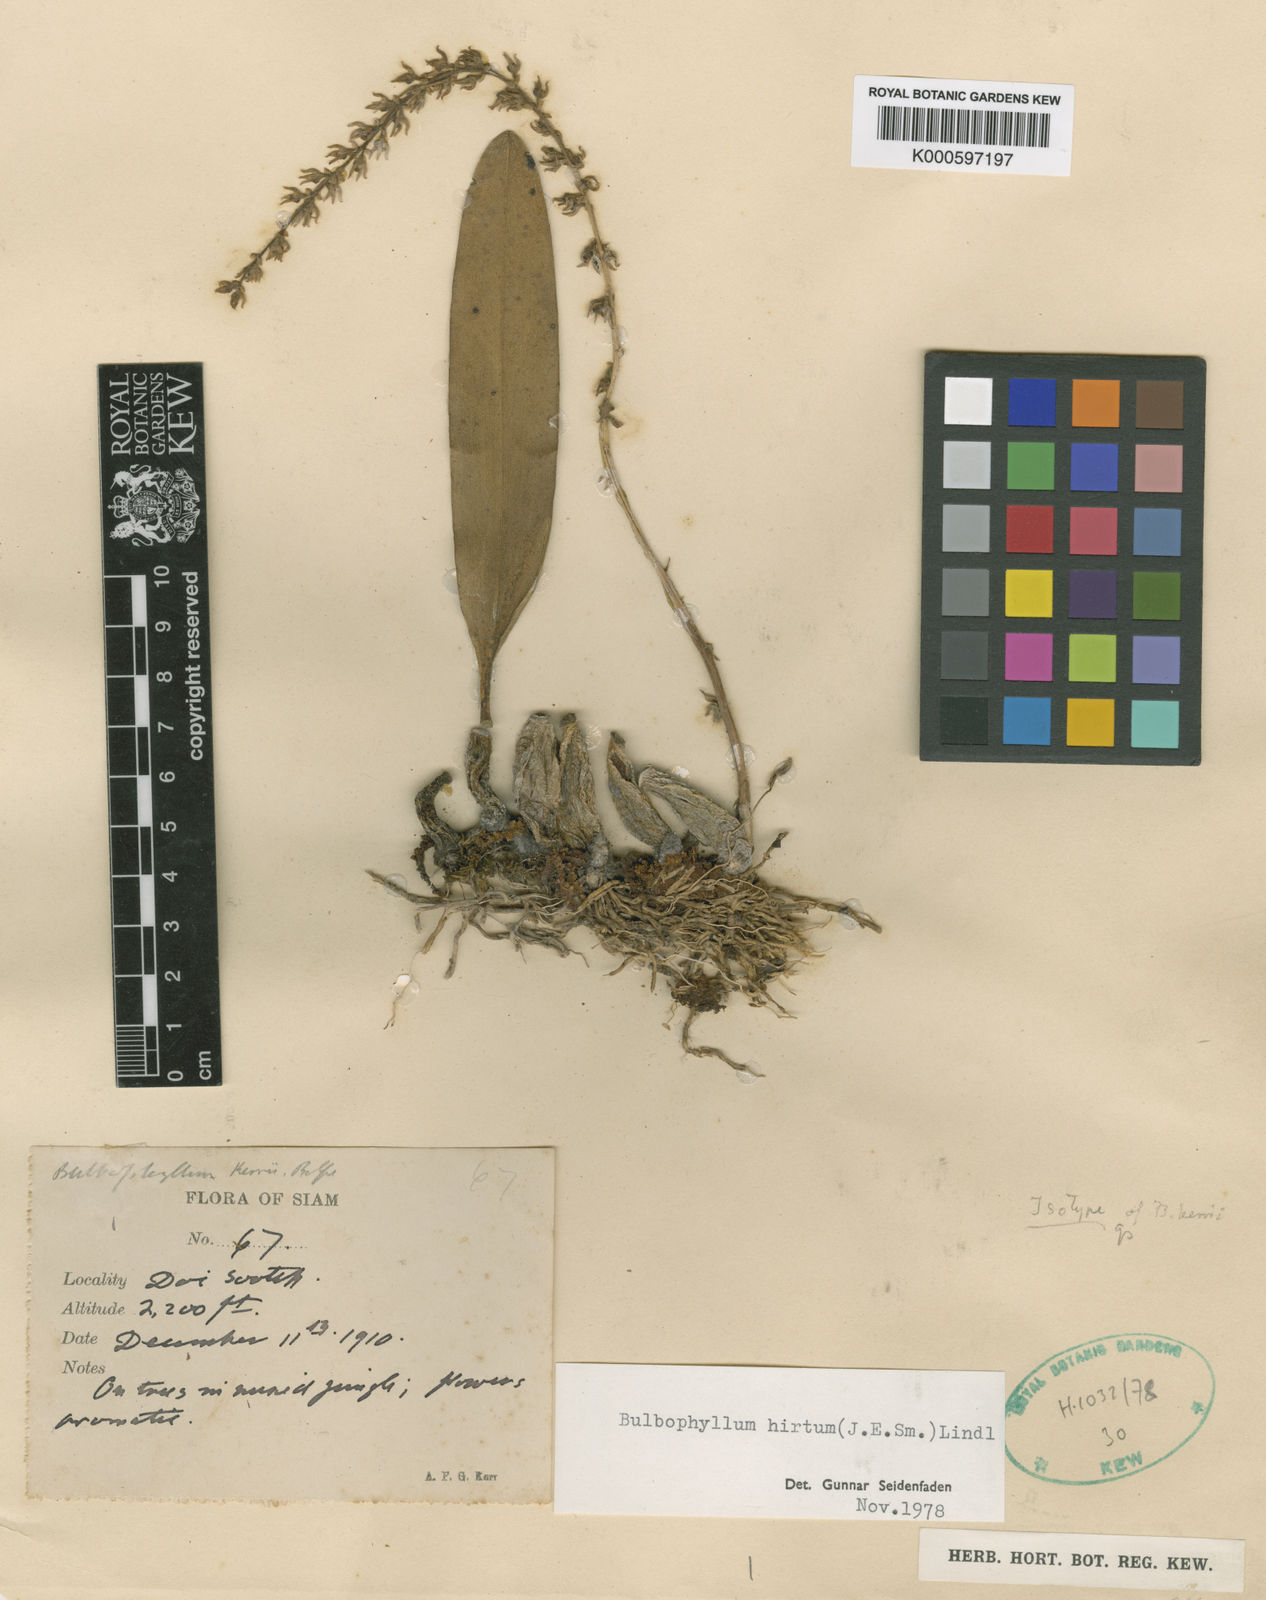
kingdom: Plantae
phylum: Tracheophyta
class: Liliopsida
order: Asparagales
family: Orchidaceae
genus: Bulbophyllum
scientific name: Bulbophyllum
